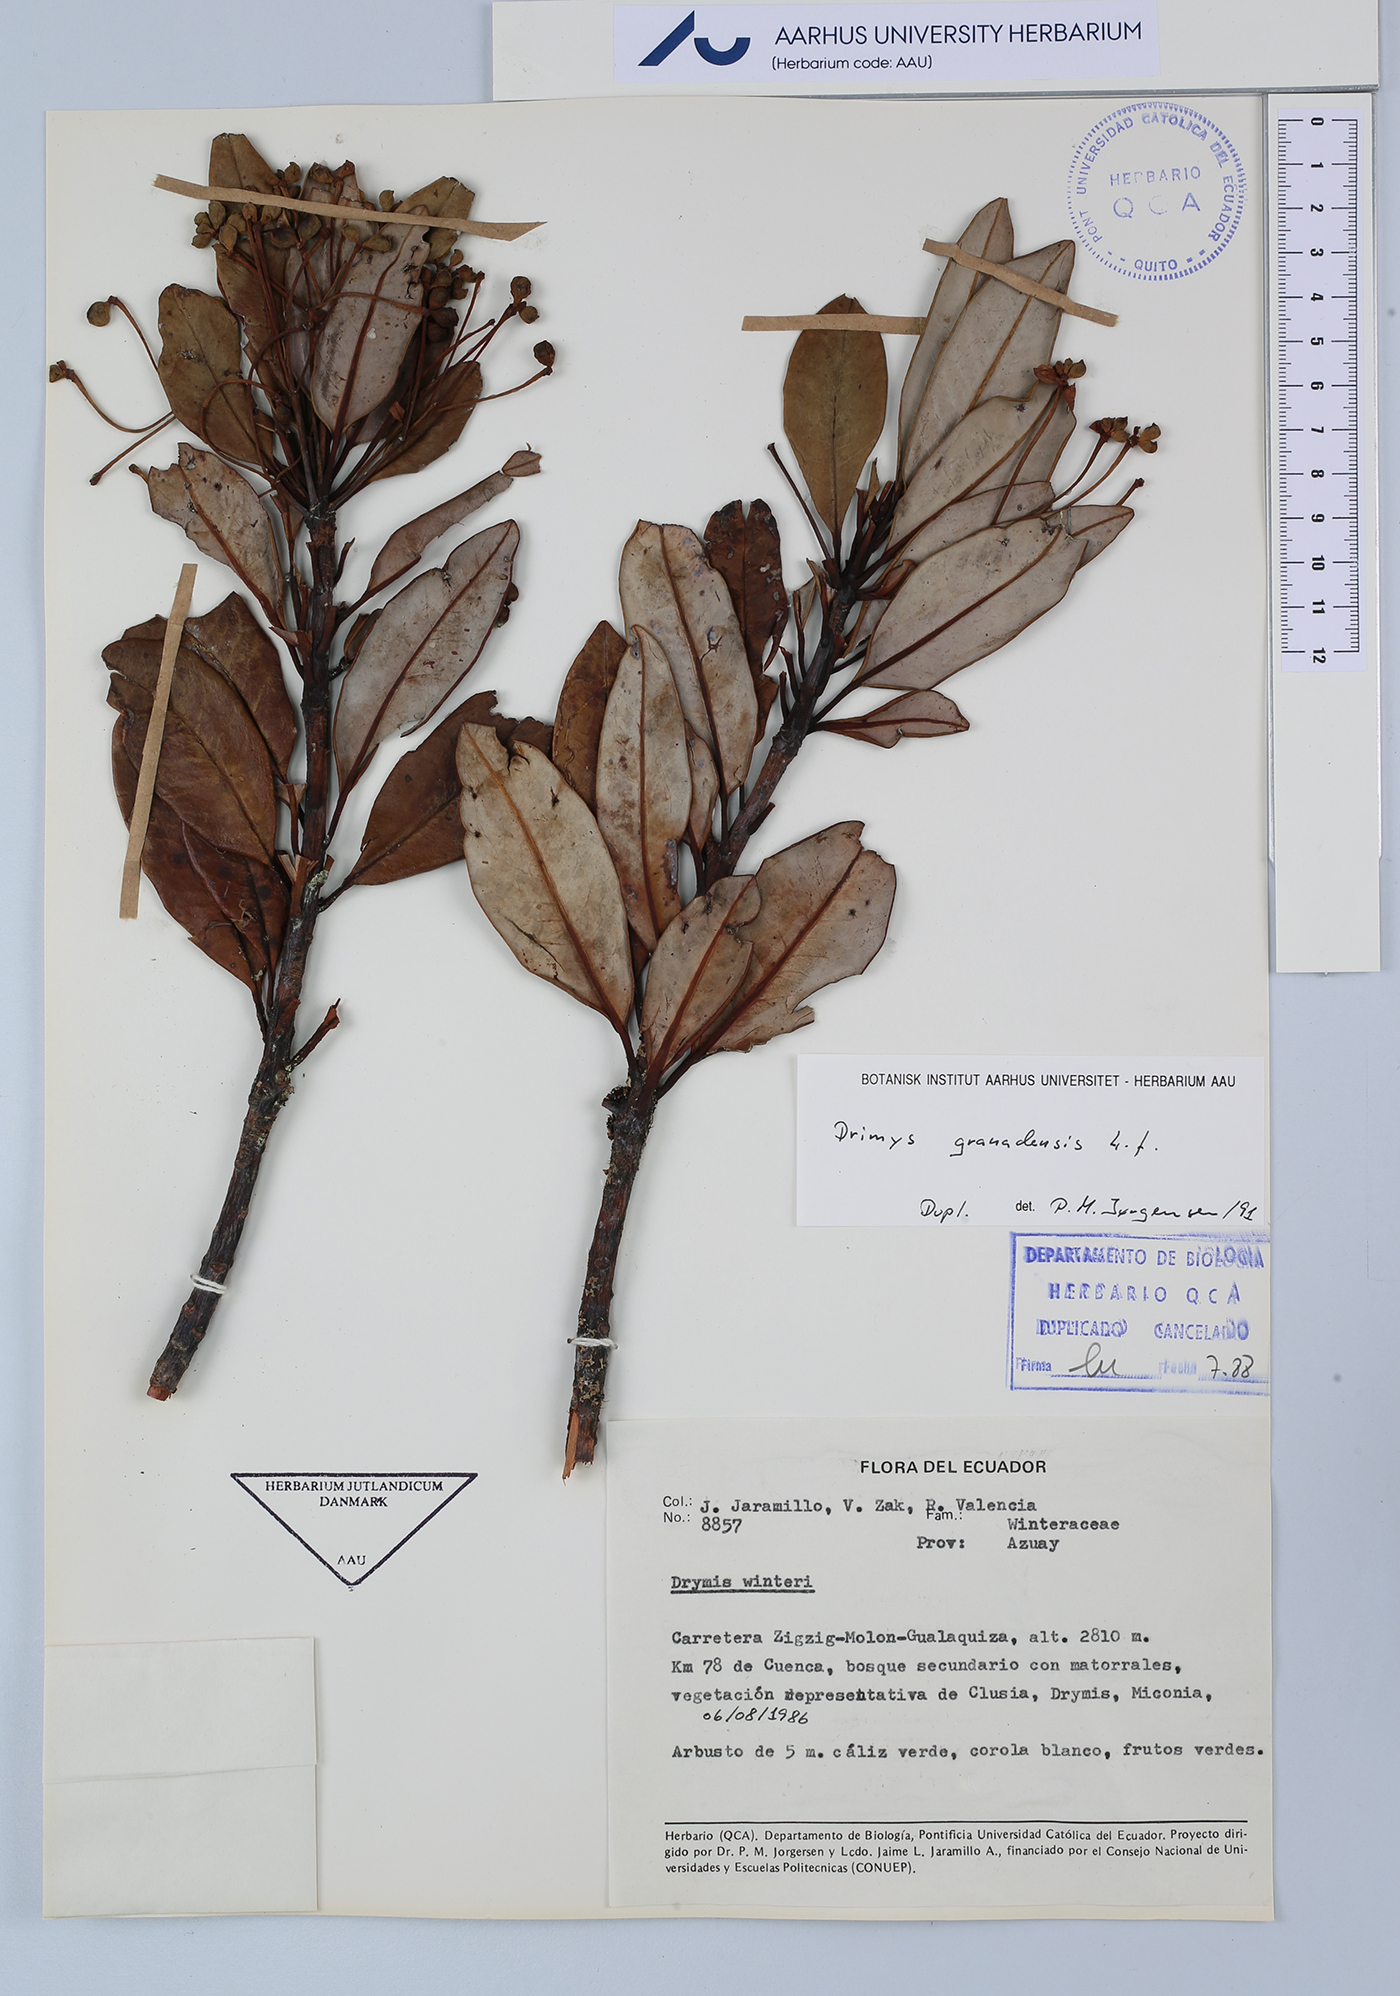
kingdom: Plantae
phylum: Tracheophyta
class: Magnoliopsida
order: Canellales
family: Winteraceae
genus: Drimys
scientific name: Drimys granadensis
